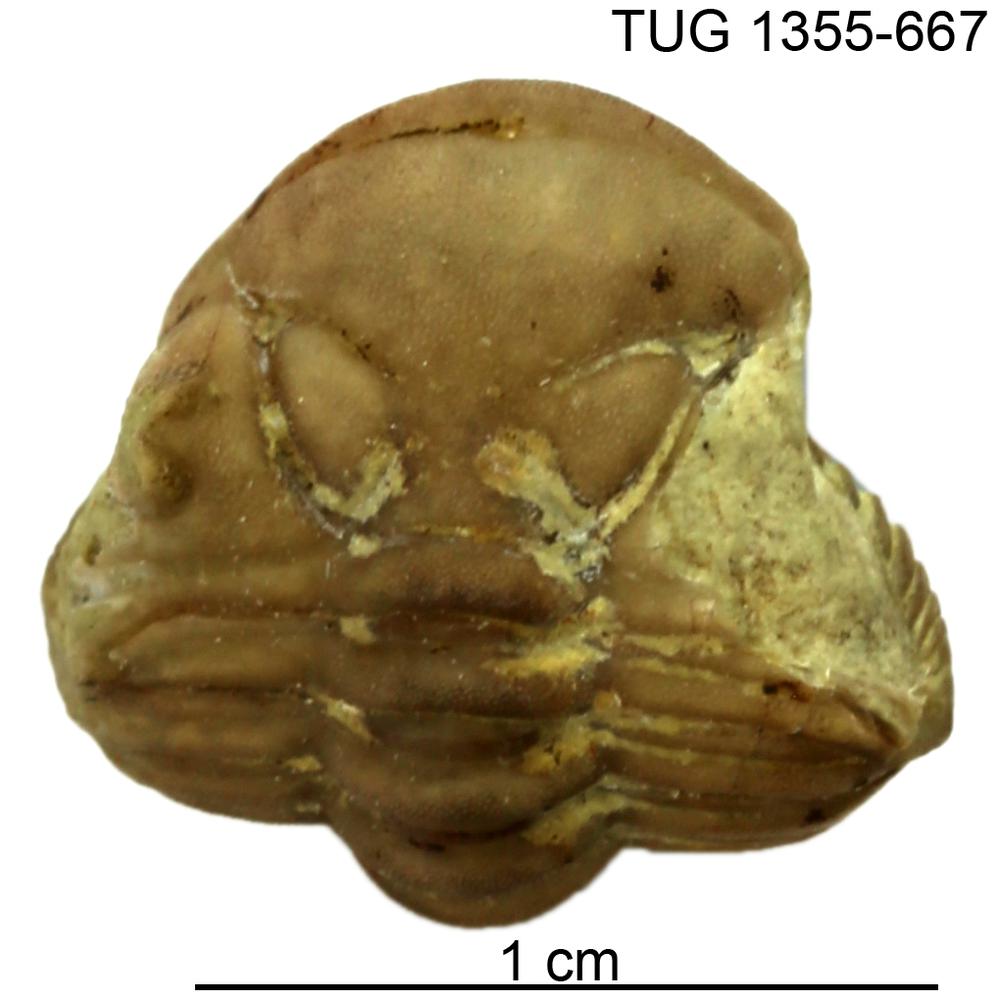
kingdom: Animalia
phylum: Arthropoda
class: Trilobita
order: Phacopida
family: Pterygometopidae
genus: Rollmops
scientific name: Rollmops
